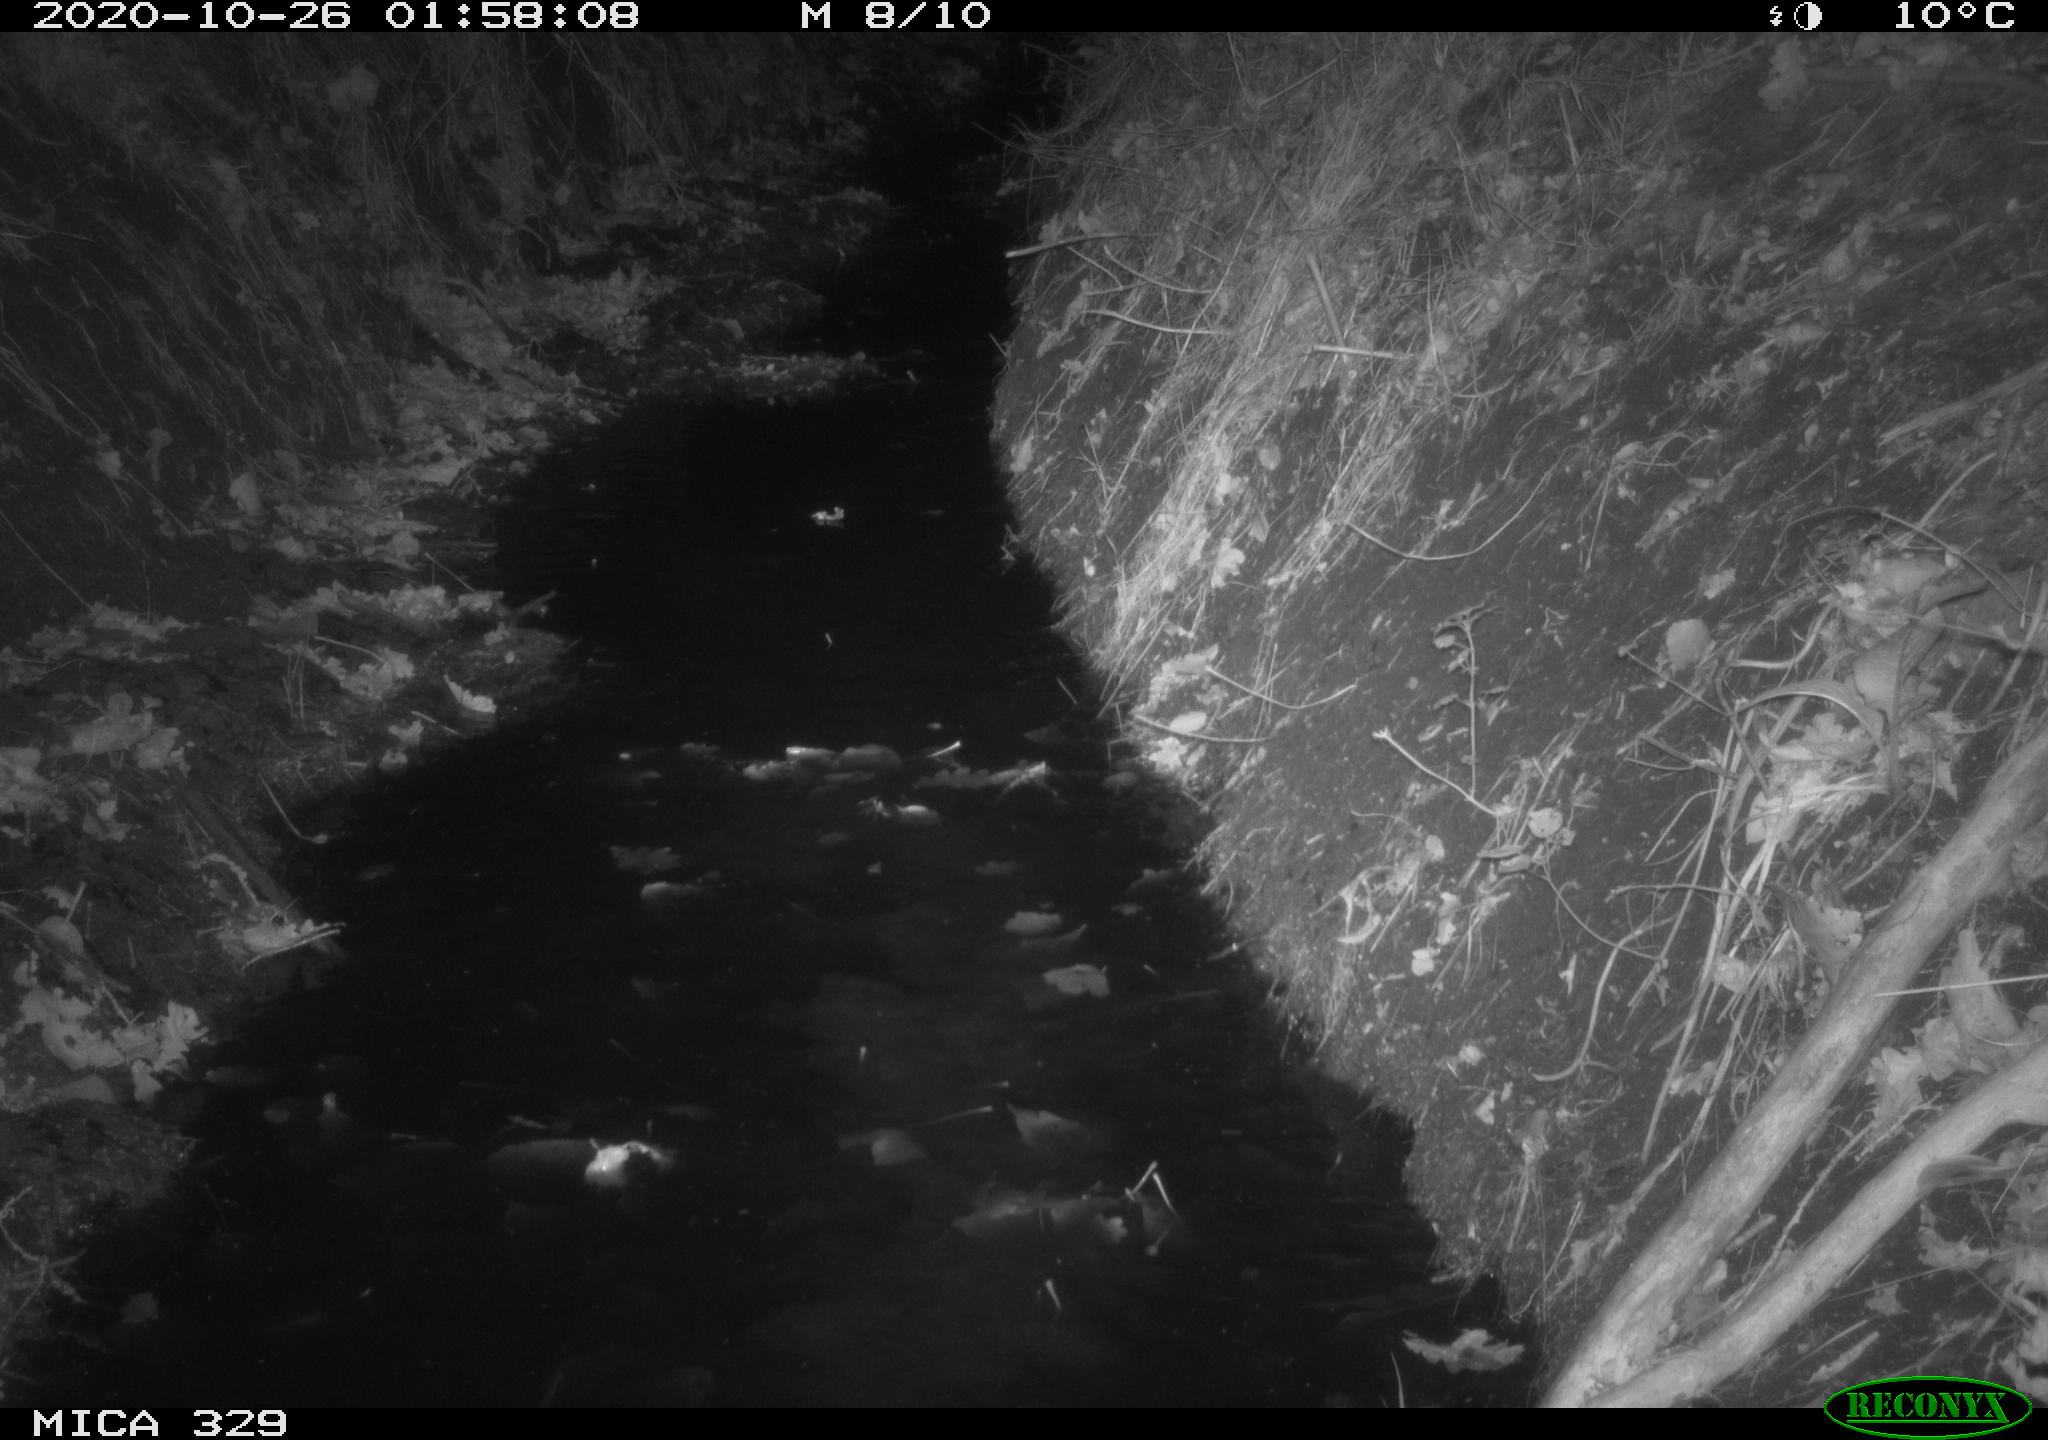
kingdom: Animalia
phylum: Chordata
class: Mammalia
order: Rodentia
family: Myocastoridae
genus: Myocastor
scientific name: Myocastor coypus
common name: Coypu
